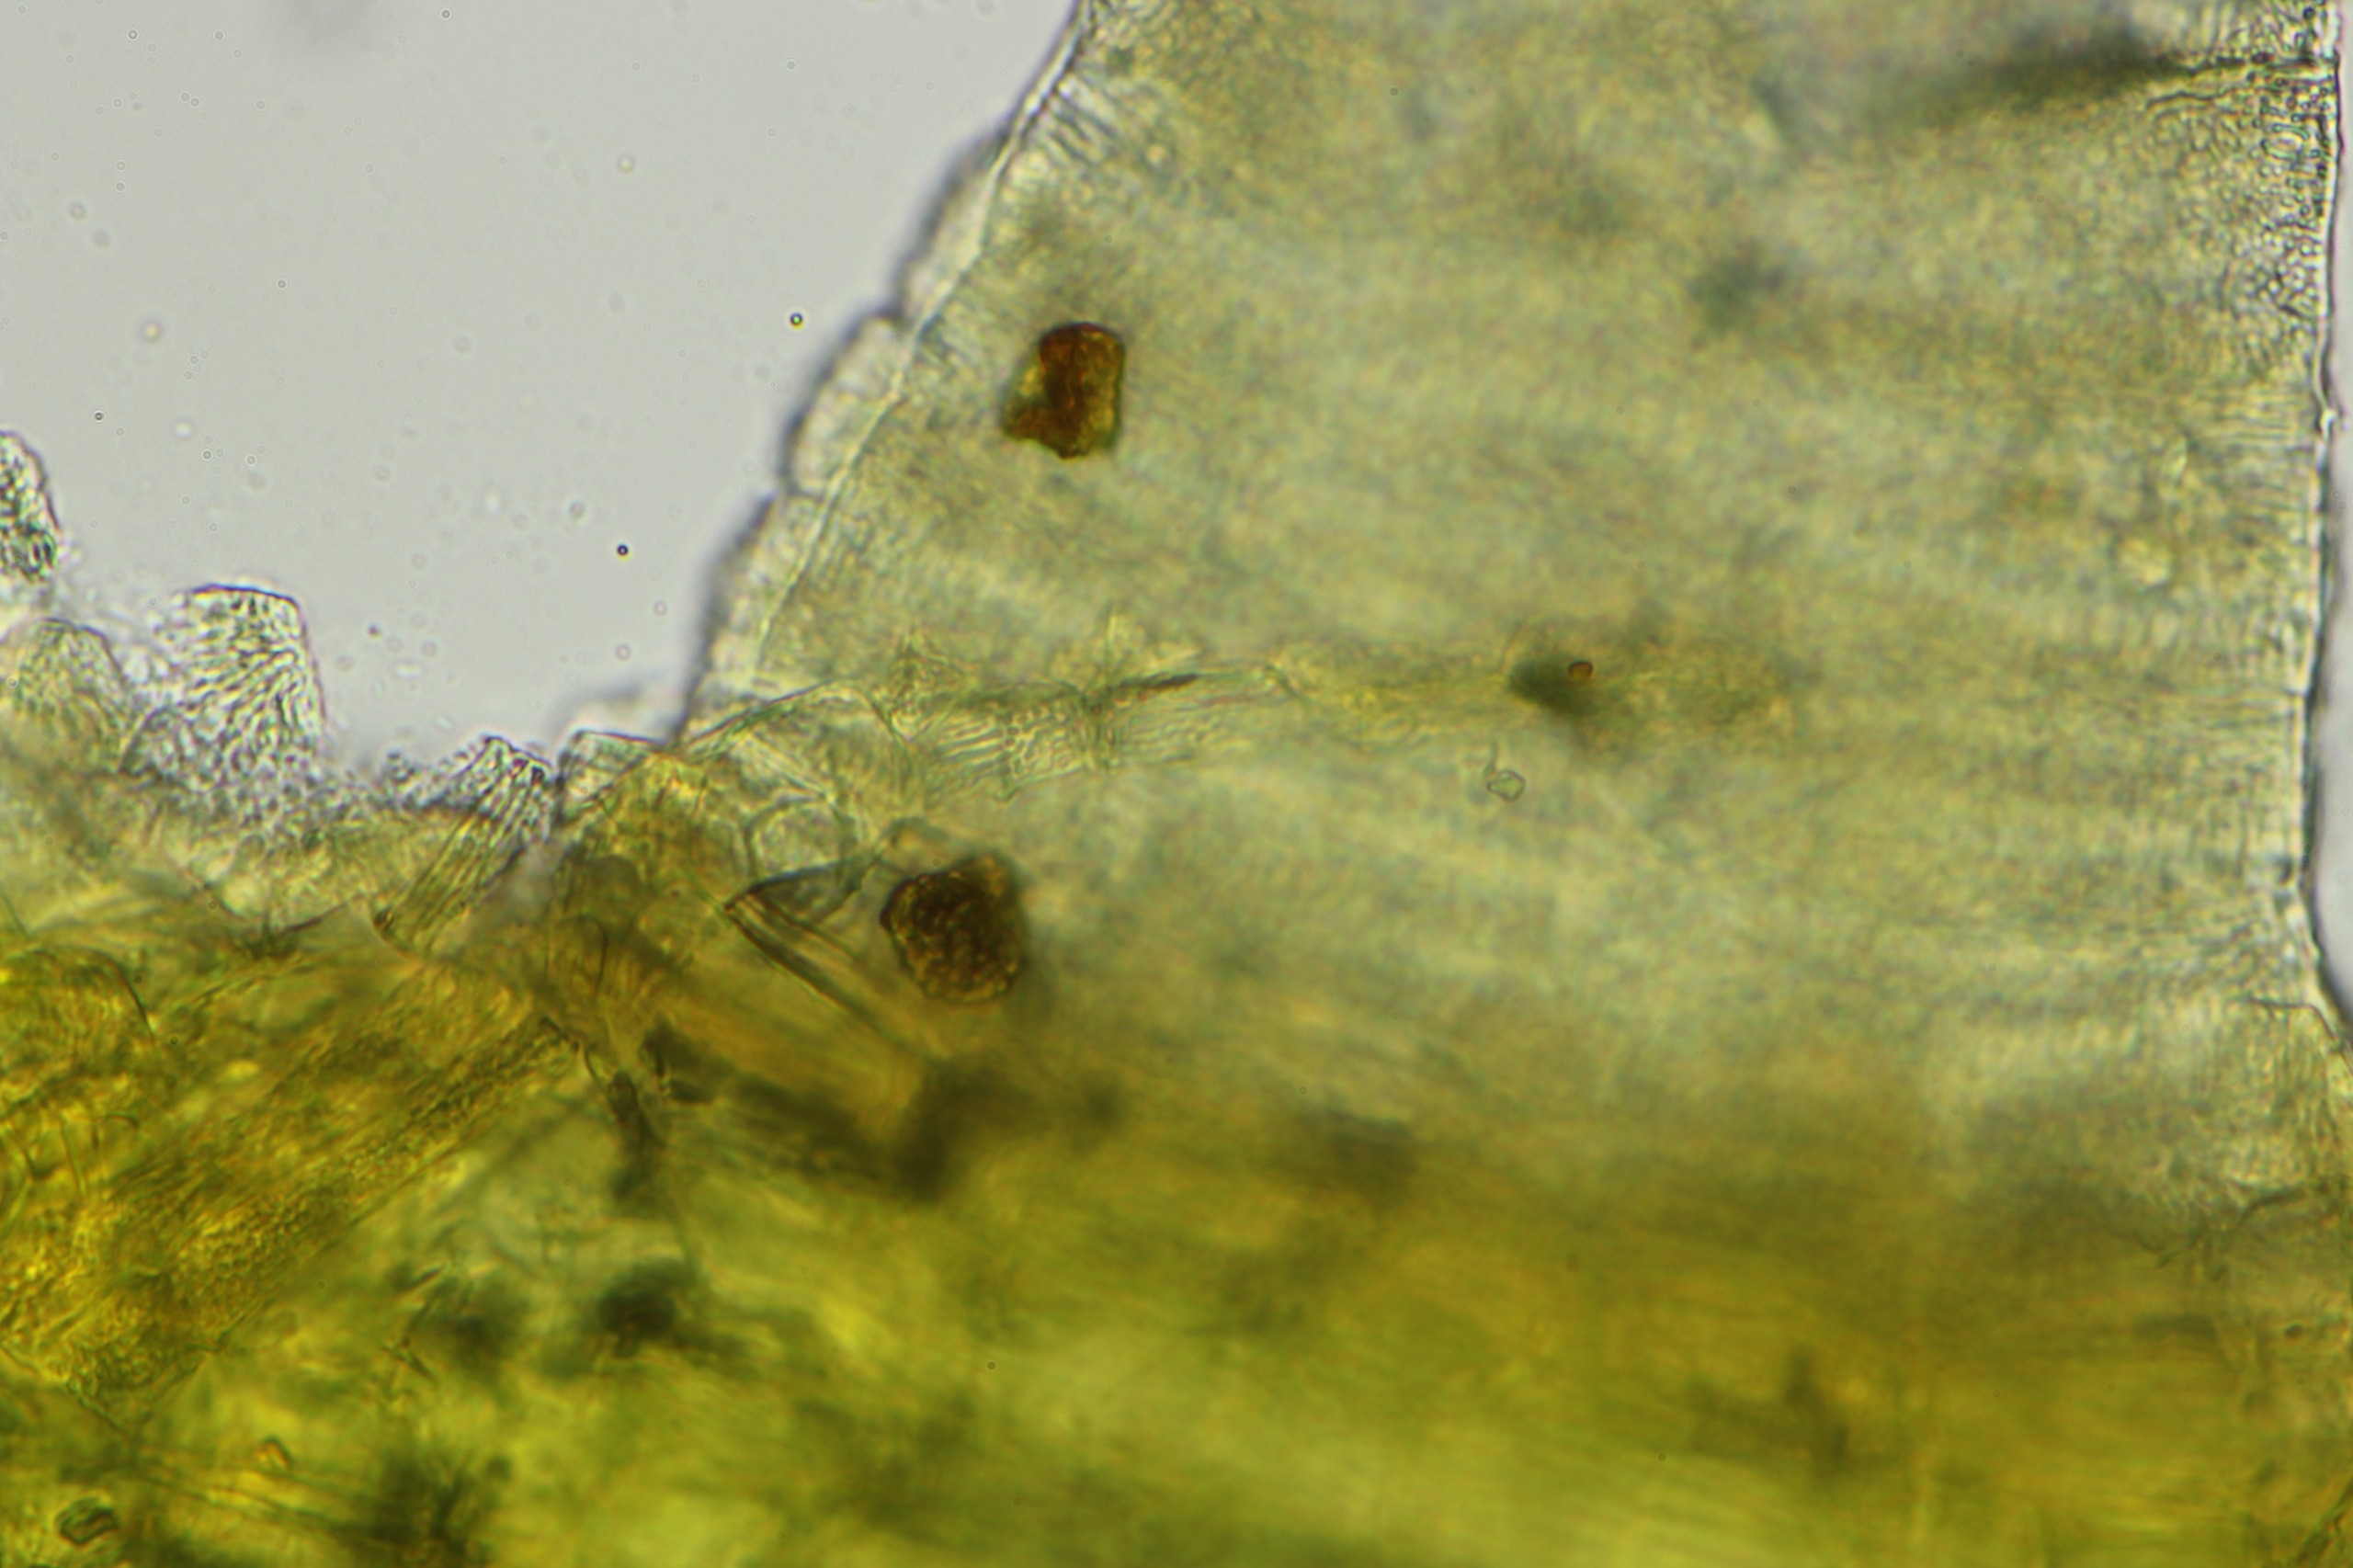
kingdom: Plantae
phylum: Bryophyta
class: Bryopsida
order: Orthotrichales
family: Orthotrichaceae
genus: Ulota
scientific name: Ulota bruchii
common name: Bruchs låddenhætte
